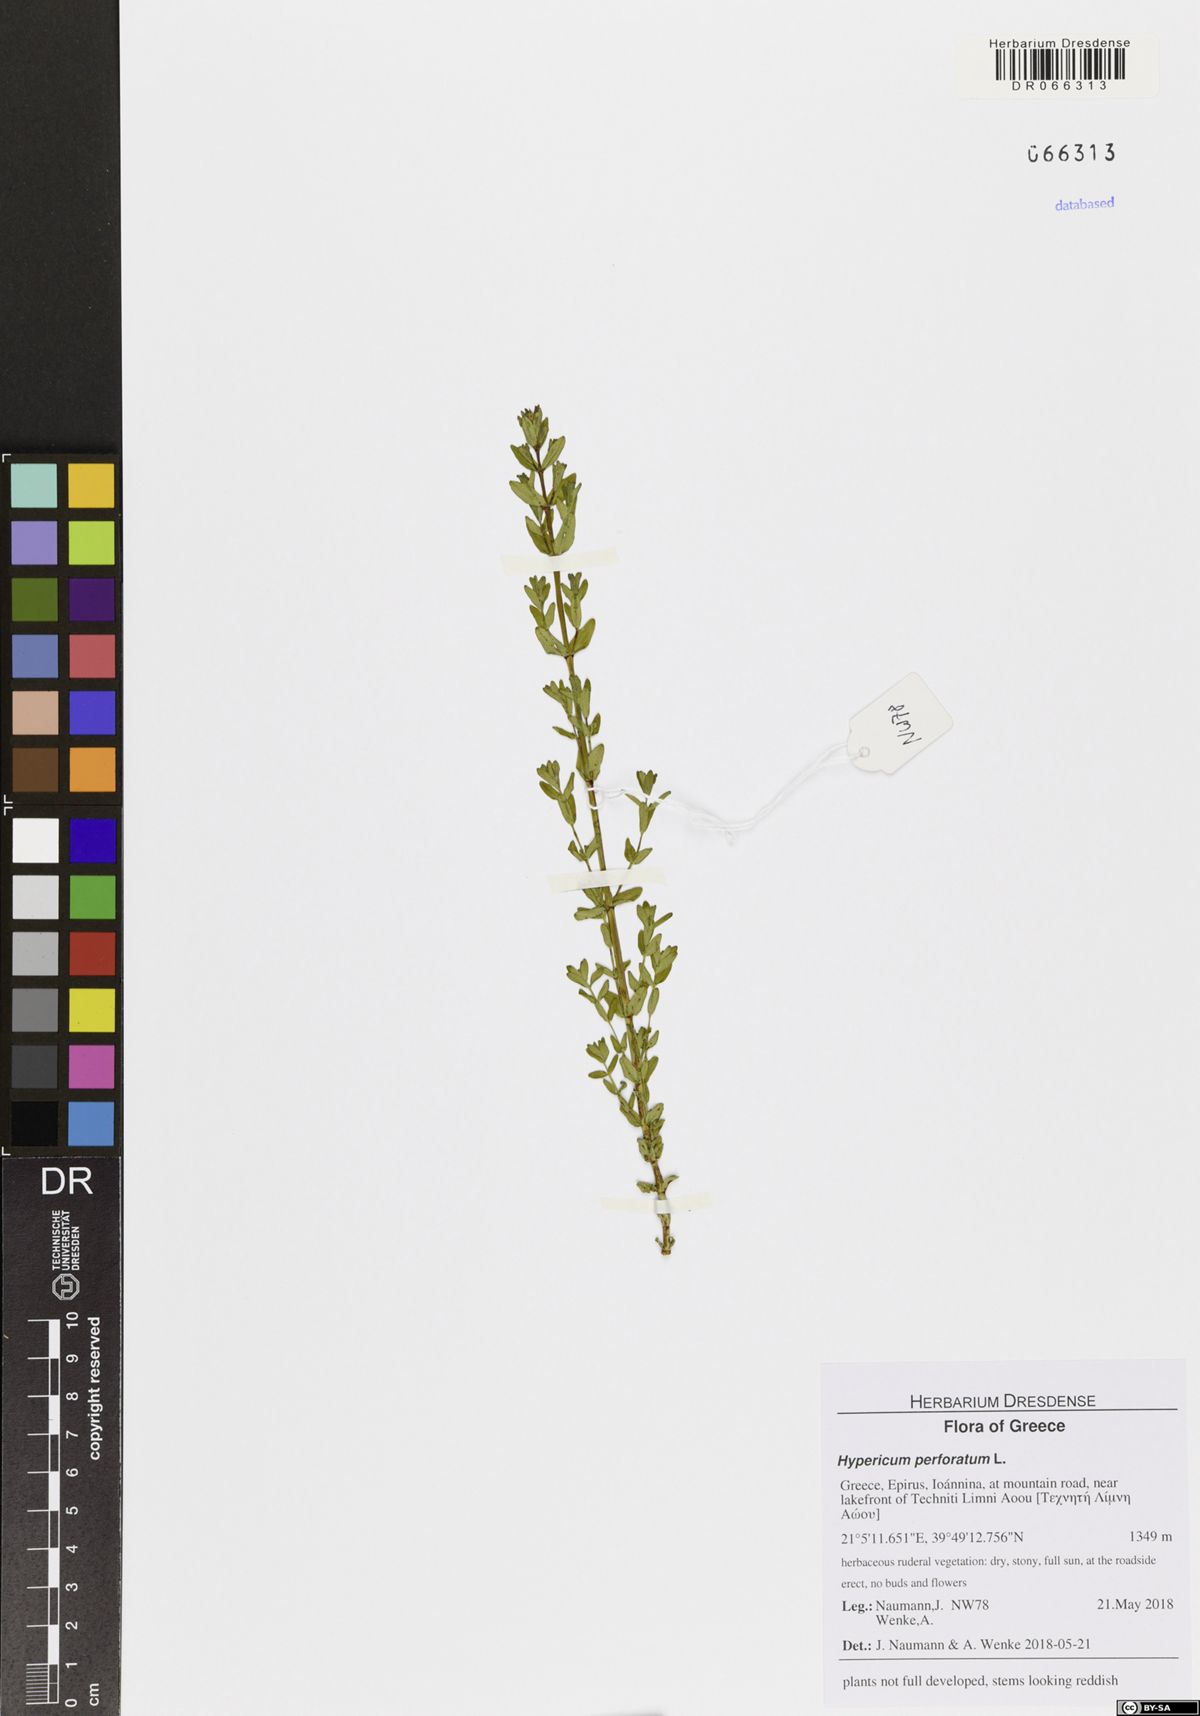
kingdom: Plantae
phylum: Tracheophyta
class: Magnoliopsida
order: Malpighiales
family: Hypericaceae
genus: Hypericum
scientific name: Hypericum perforatum
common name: Common st. johnswort
